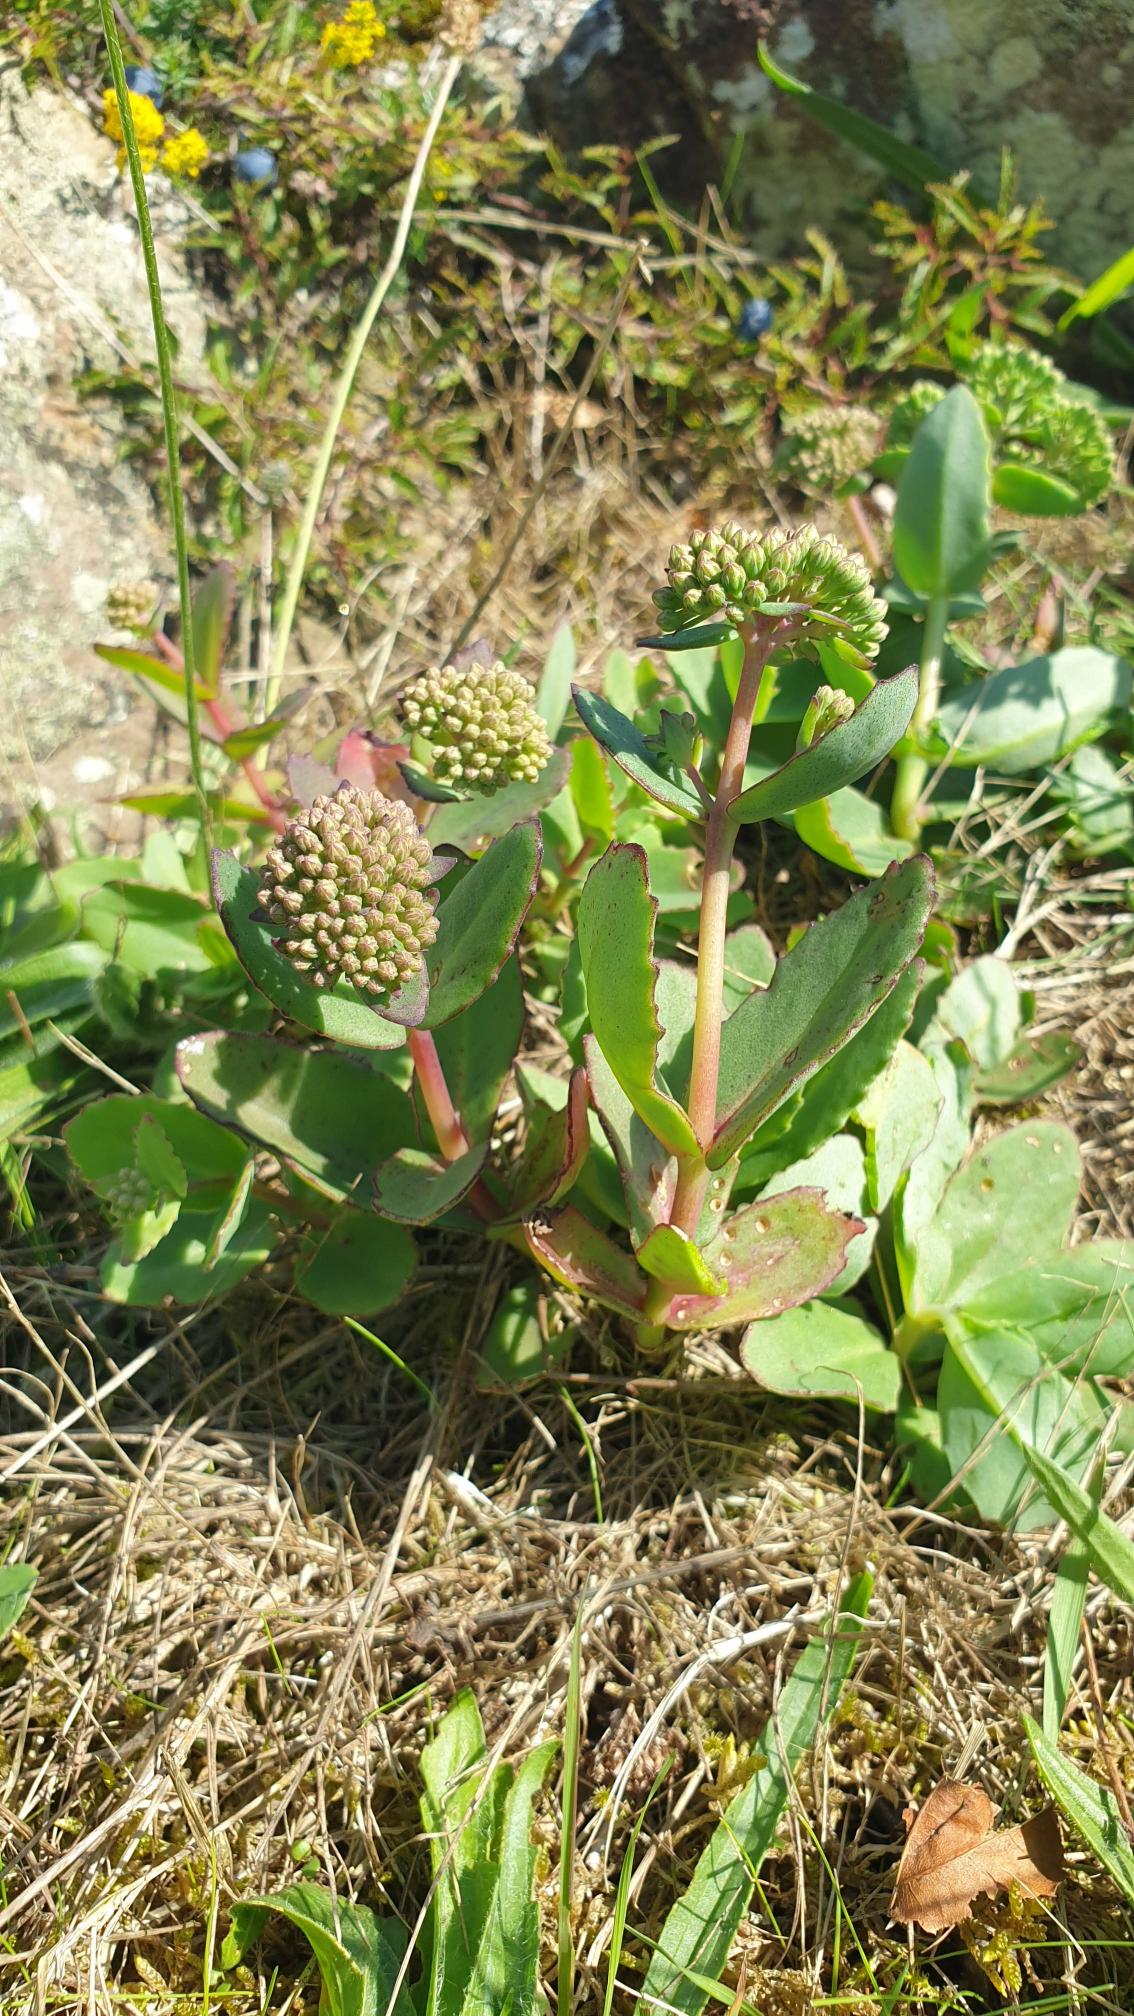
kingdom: Plantae
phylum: Tracheophyta
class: Magnoliopsida
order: Saxifragales
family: Crassulaceae
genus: Hylotelephium
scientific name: Hylotelephium maximum
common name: Almindelig sankthansurt
